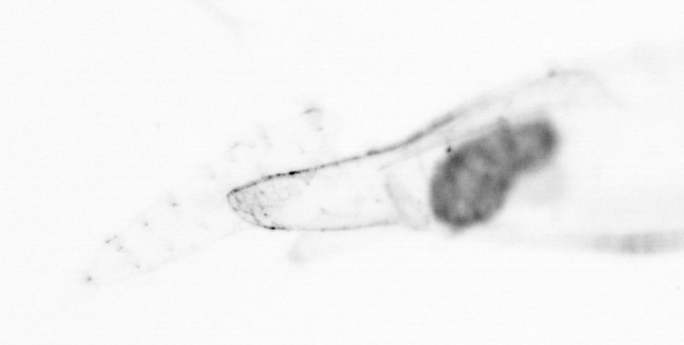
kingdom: Animalia
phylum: Chaetognatha
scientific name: Chaetognatha
